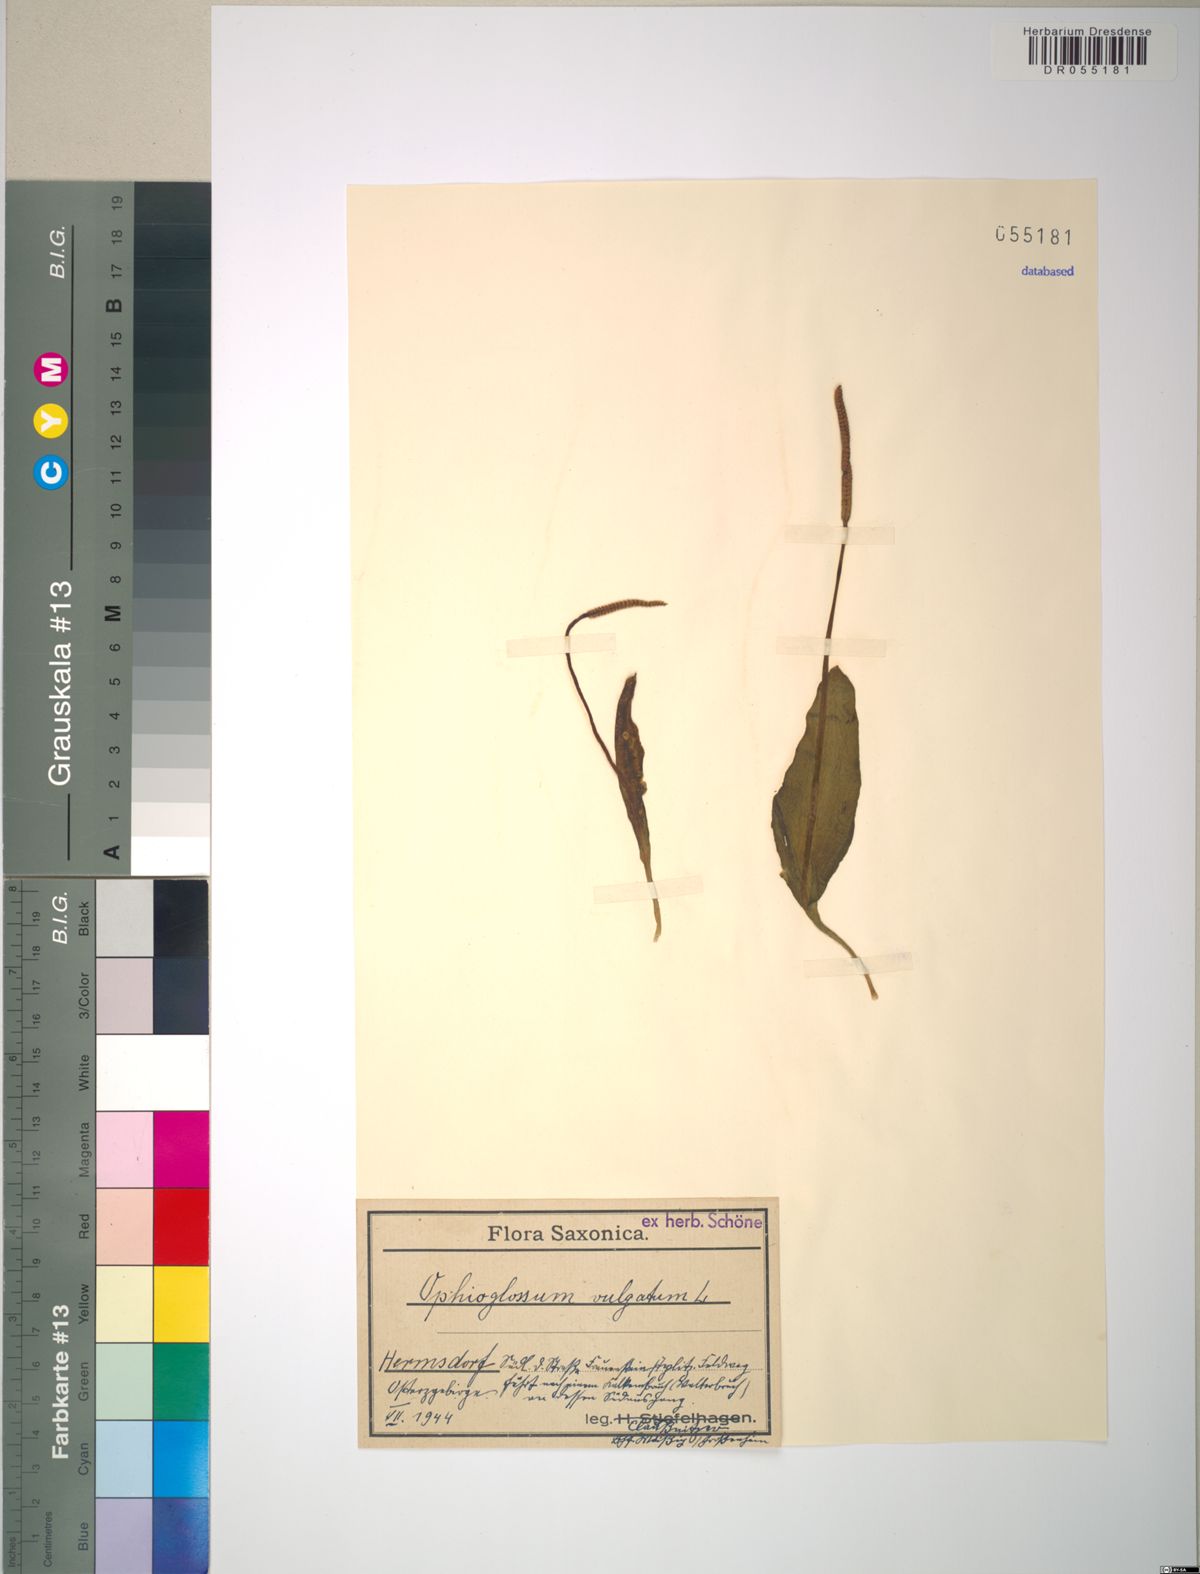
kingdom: Plantae
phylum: Tracheophyta
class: Polypodiopsida
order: Ophioglossales
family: Ophioglossaceae
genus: Ophioglossum
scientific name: Ophioglossum vulgatum
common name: Adder's-tongue
